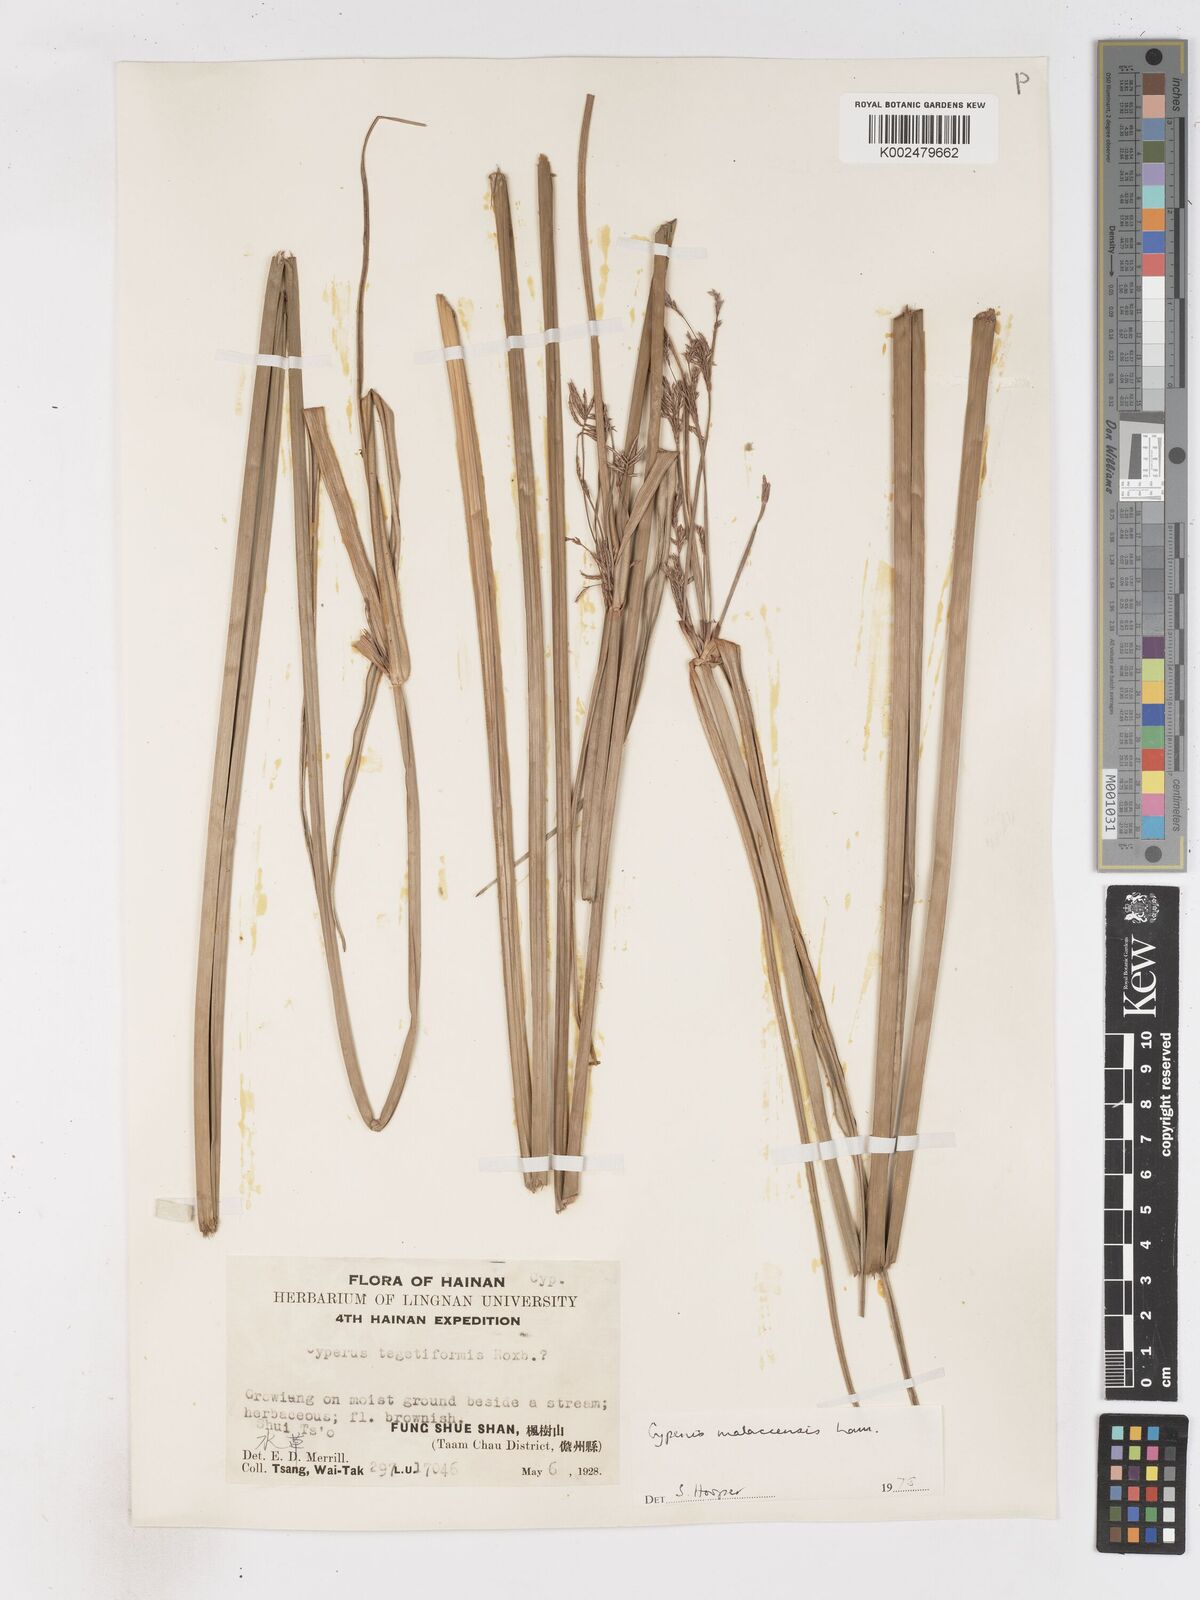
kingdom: Plantae
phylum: Tracheophyta
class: Liliopsida
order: Poales
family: Cyperaceae
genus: Cyperus
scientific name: Cyperus malaccensis
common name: Shichito matgrass
